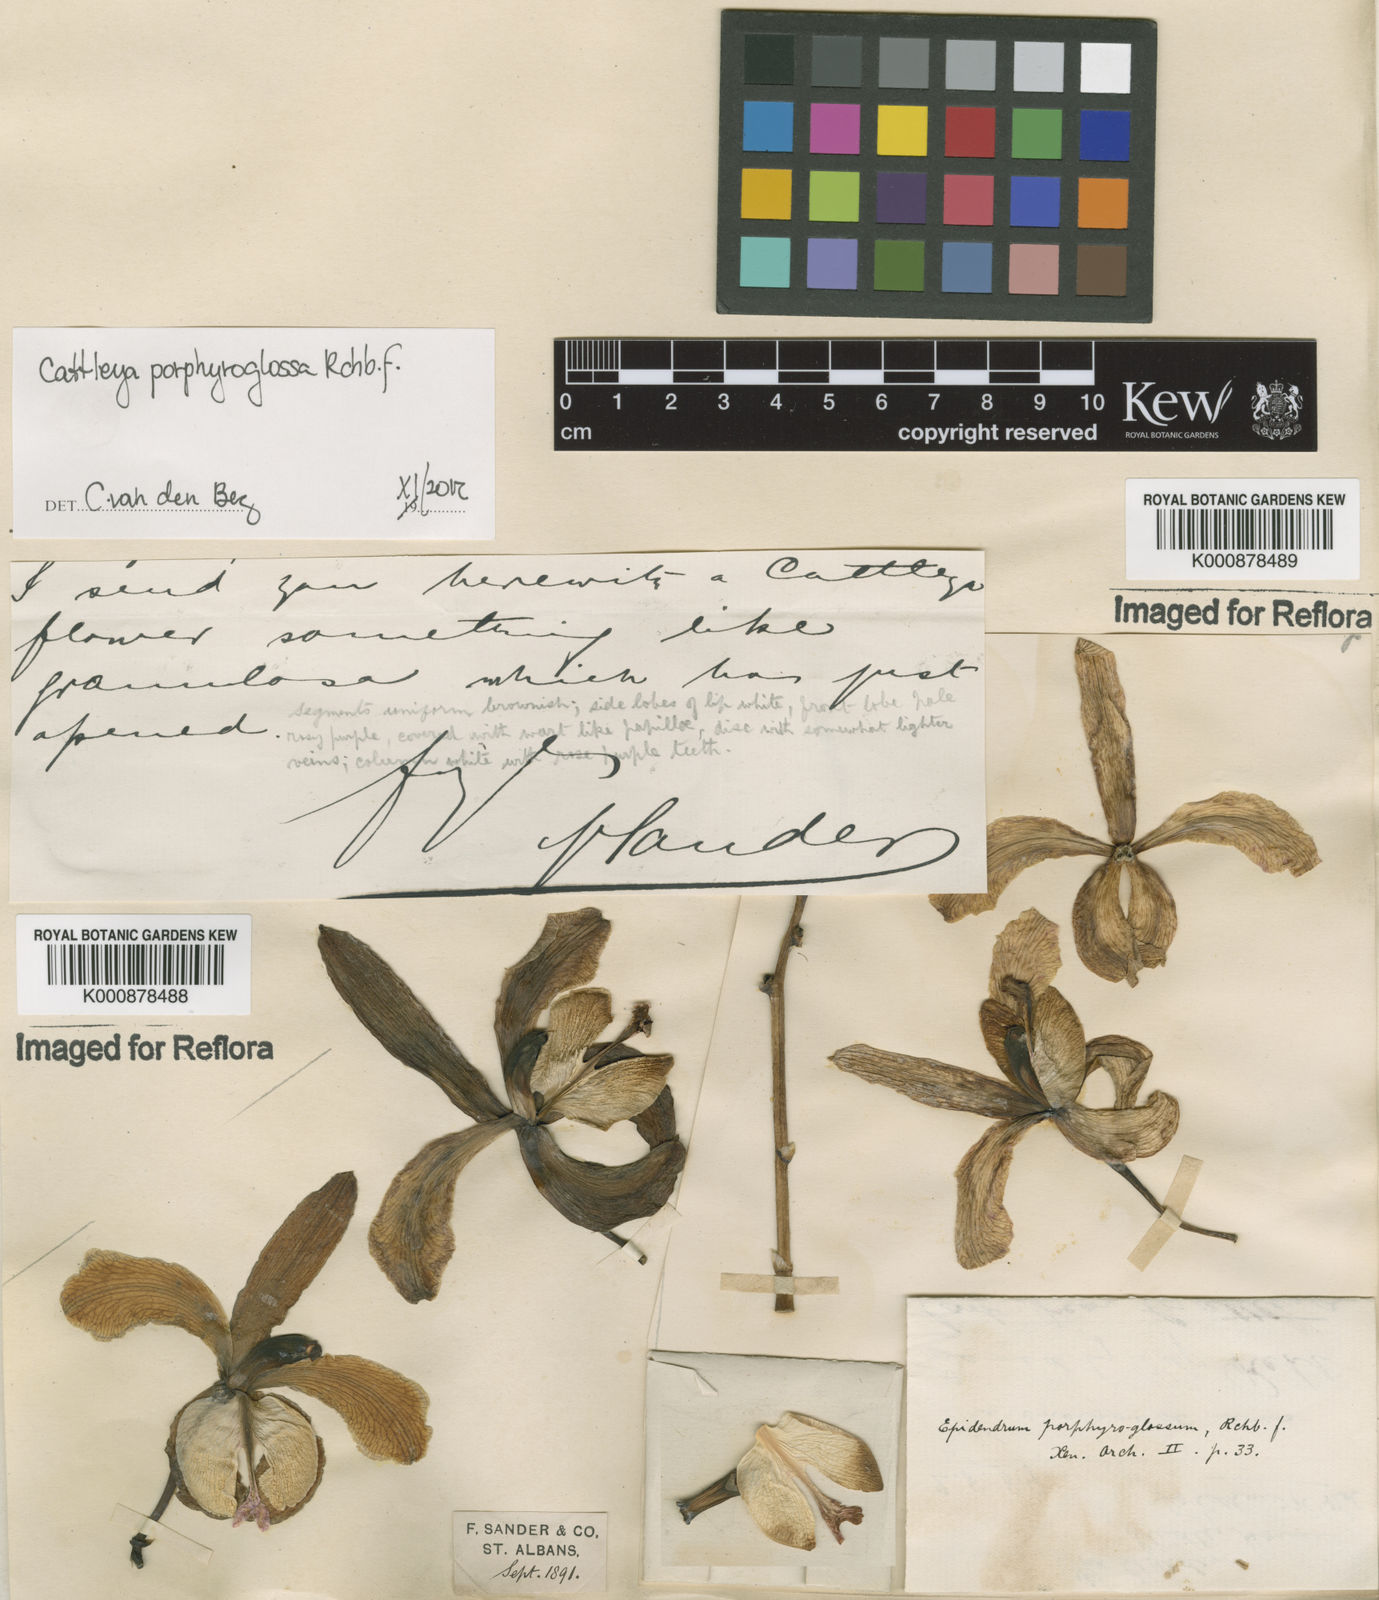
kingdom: Plantae
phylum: Tracheophyta
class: Liliopsida
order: Asparagales
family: Orchidaceae
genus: Cattleya
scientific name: Cattleya porphyroglossa
